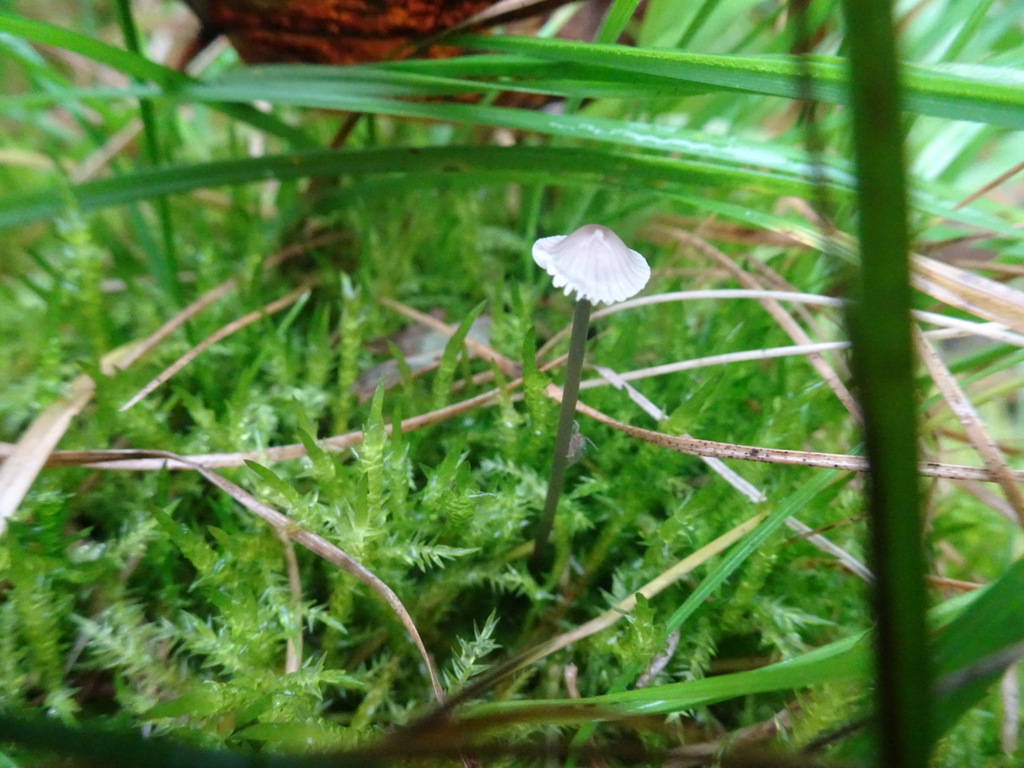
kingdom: Fungi
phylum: Basidiomycota
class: Agaricomycetes
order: Agaricales
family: Mycenaceae
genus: Mycena
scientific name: Mycena vitilis
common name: blankstokket huesvamp
